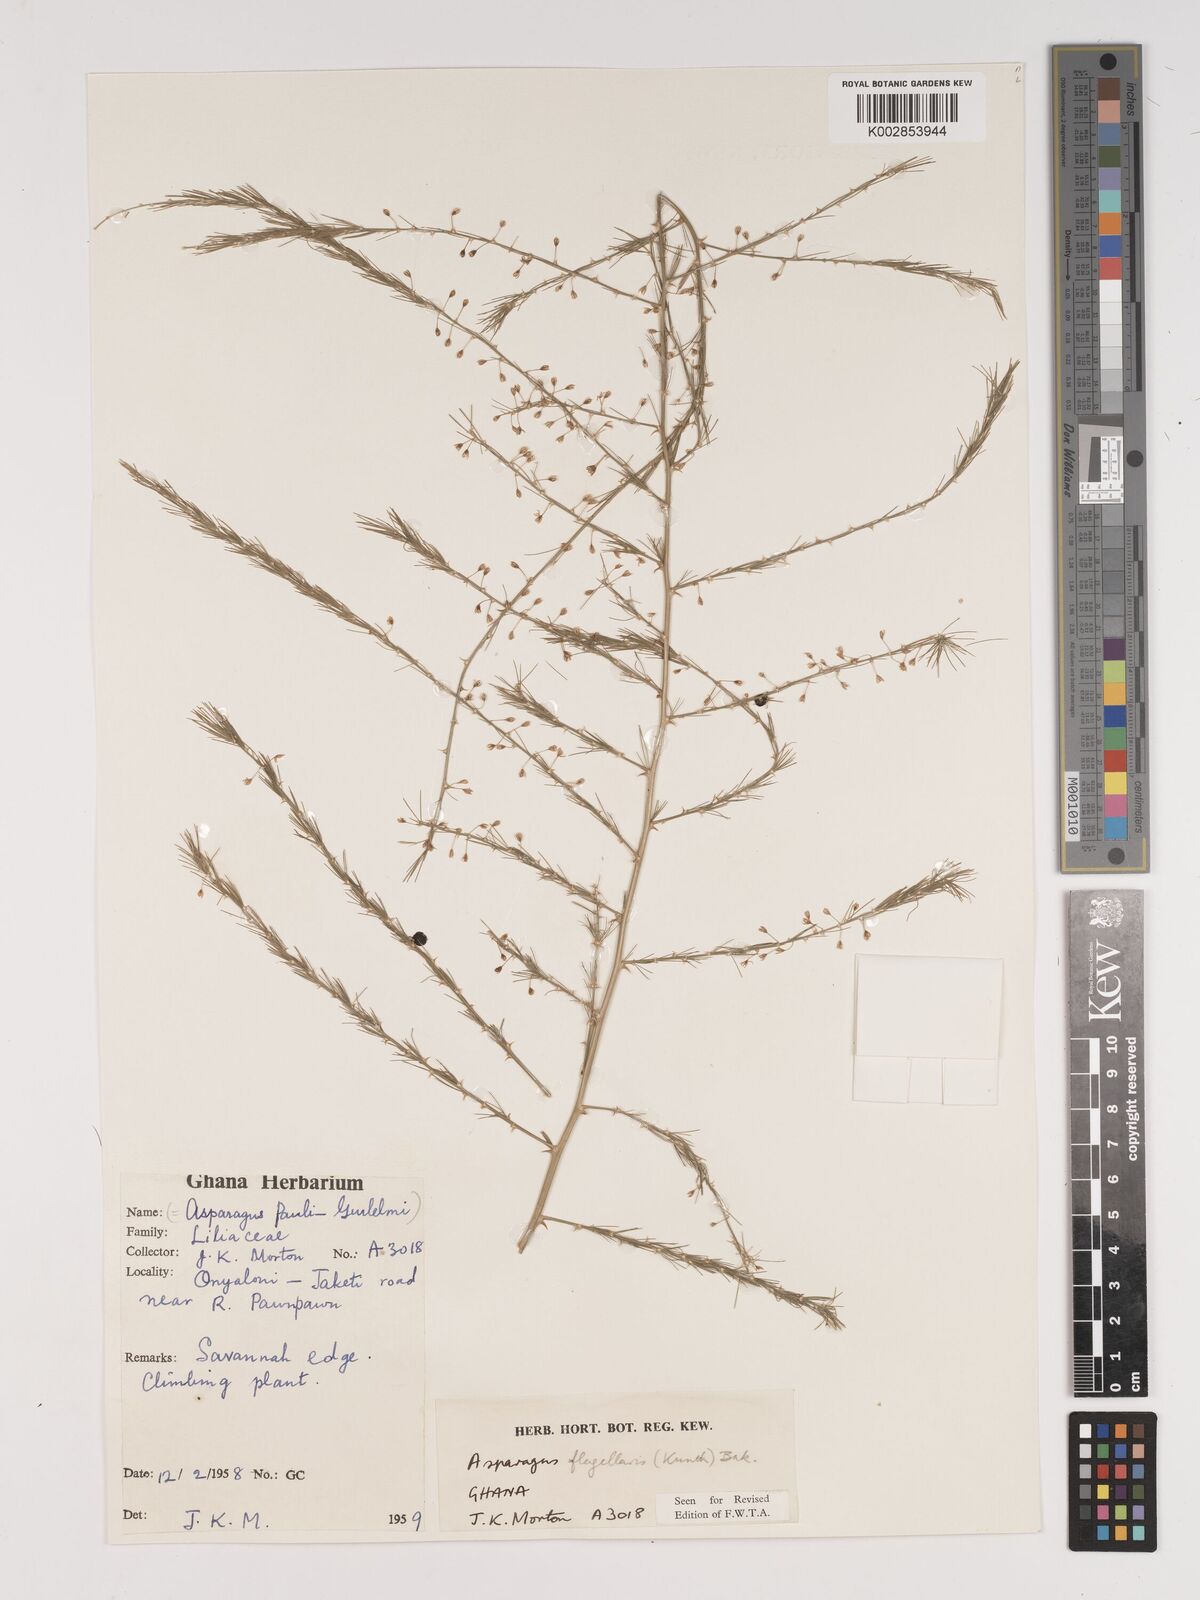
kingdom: Plantae
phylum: Tracheophyta
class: Liliopsida
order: Asparagales
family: Asparagaceae
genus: Asparagus
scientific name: Asparagus flagellaris
